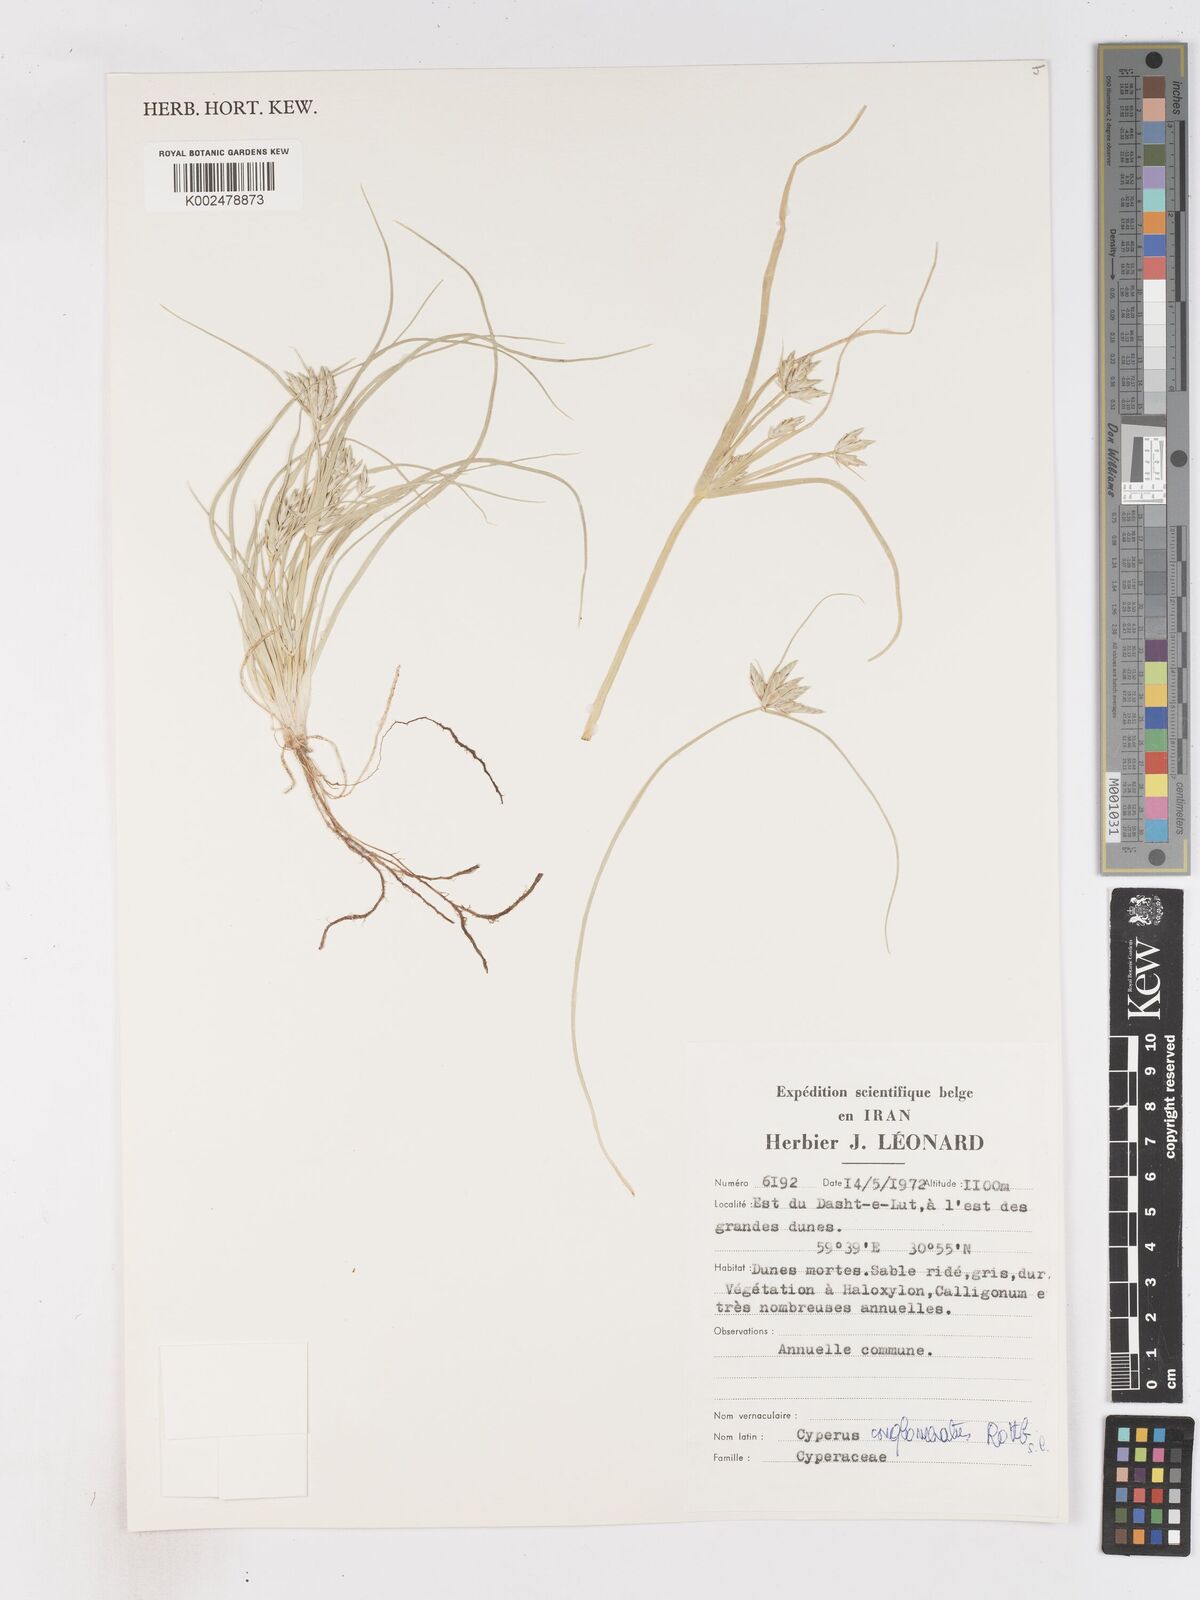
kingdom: Plantae
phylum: Tracheophyta
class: Liliopsida
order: Poales
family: Cyperaceae
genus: Cyperus
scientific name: Cyperus aucheri
